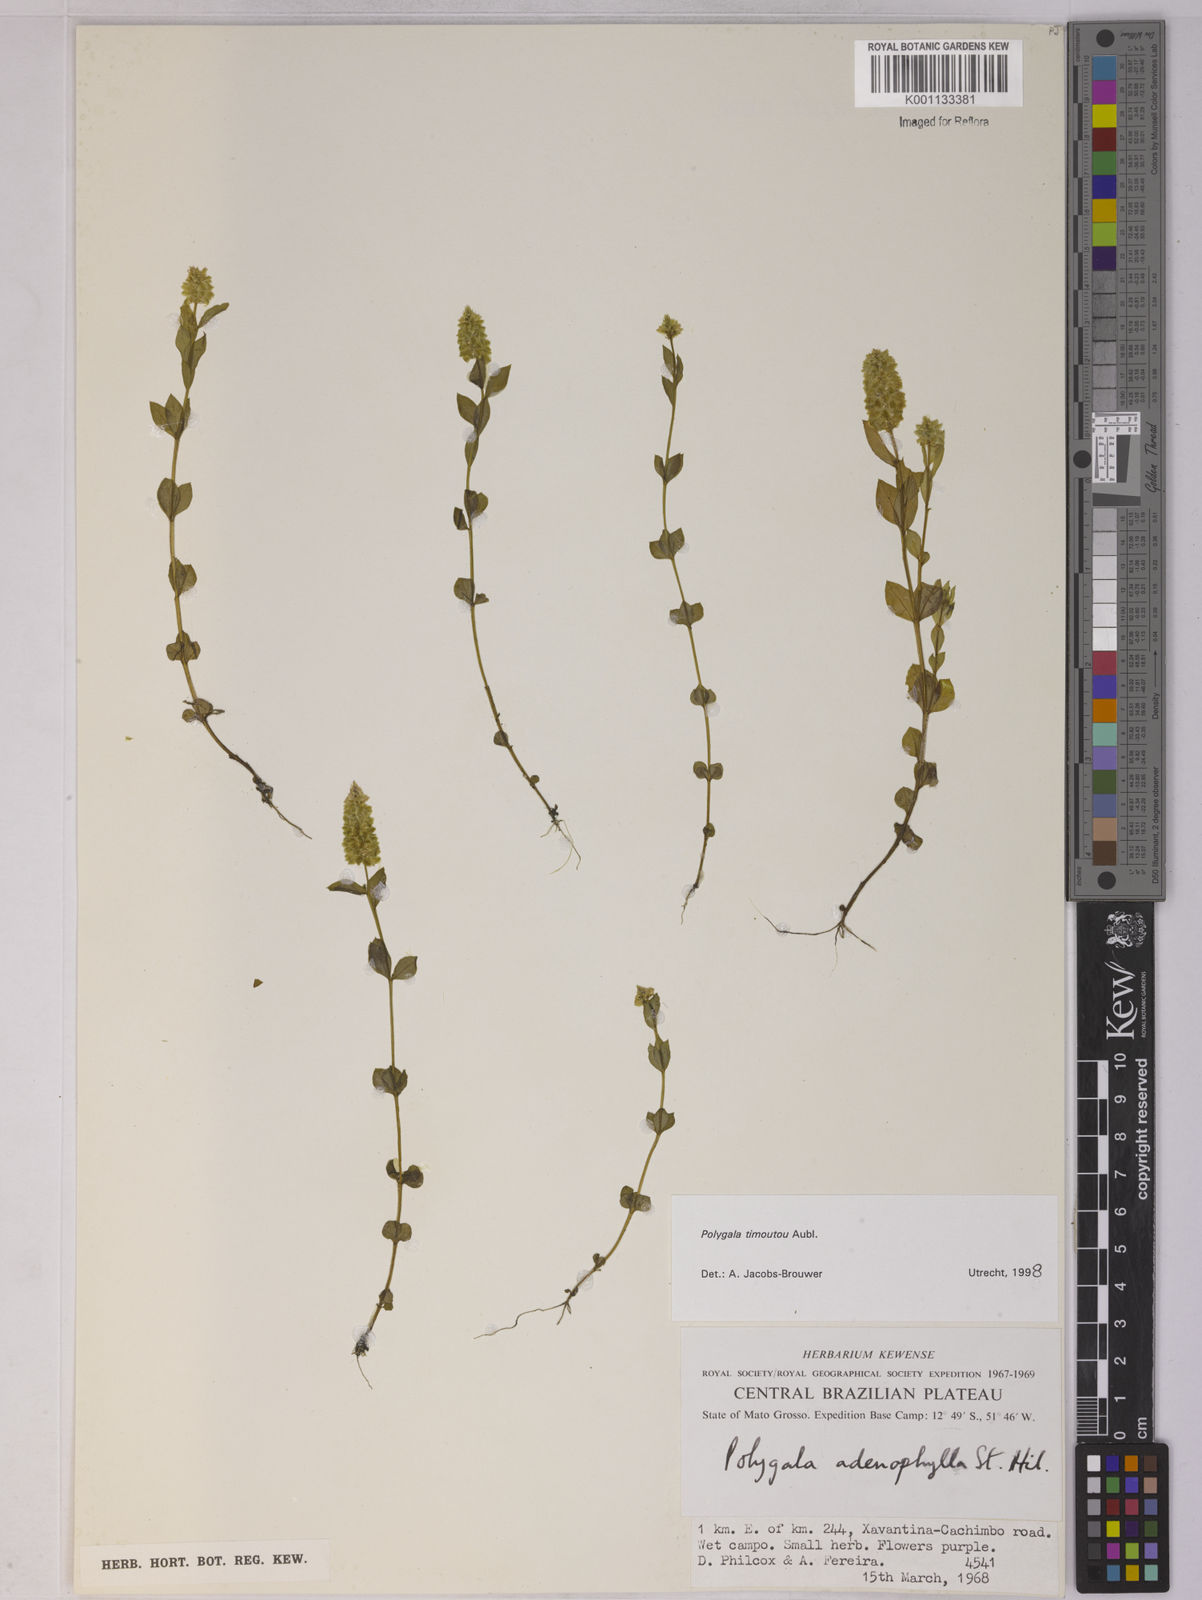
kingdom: Plantae
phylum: Tracheophyta
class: Magnoliopsida
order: Fabales
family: Polygalaceae
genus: Polygala
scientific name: Polygala timoutoides
